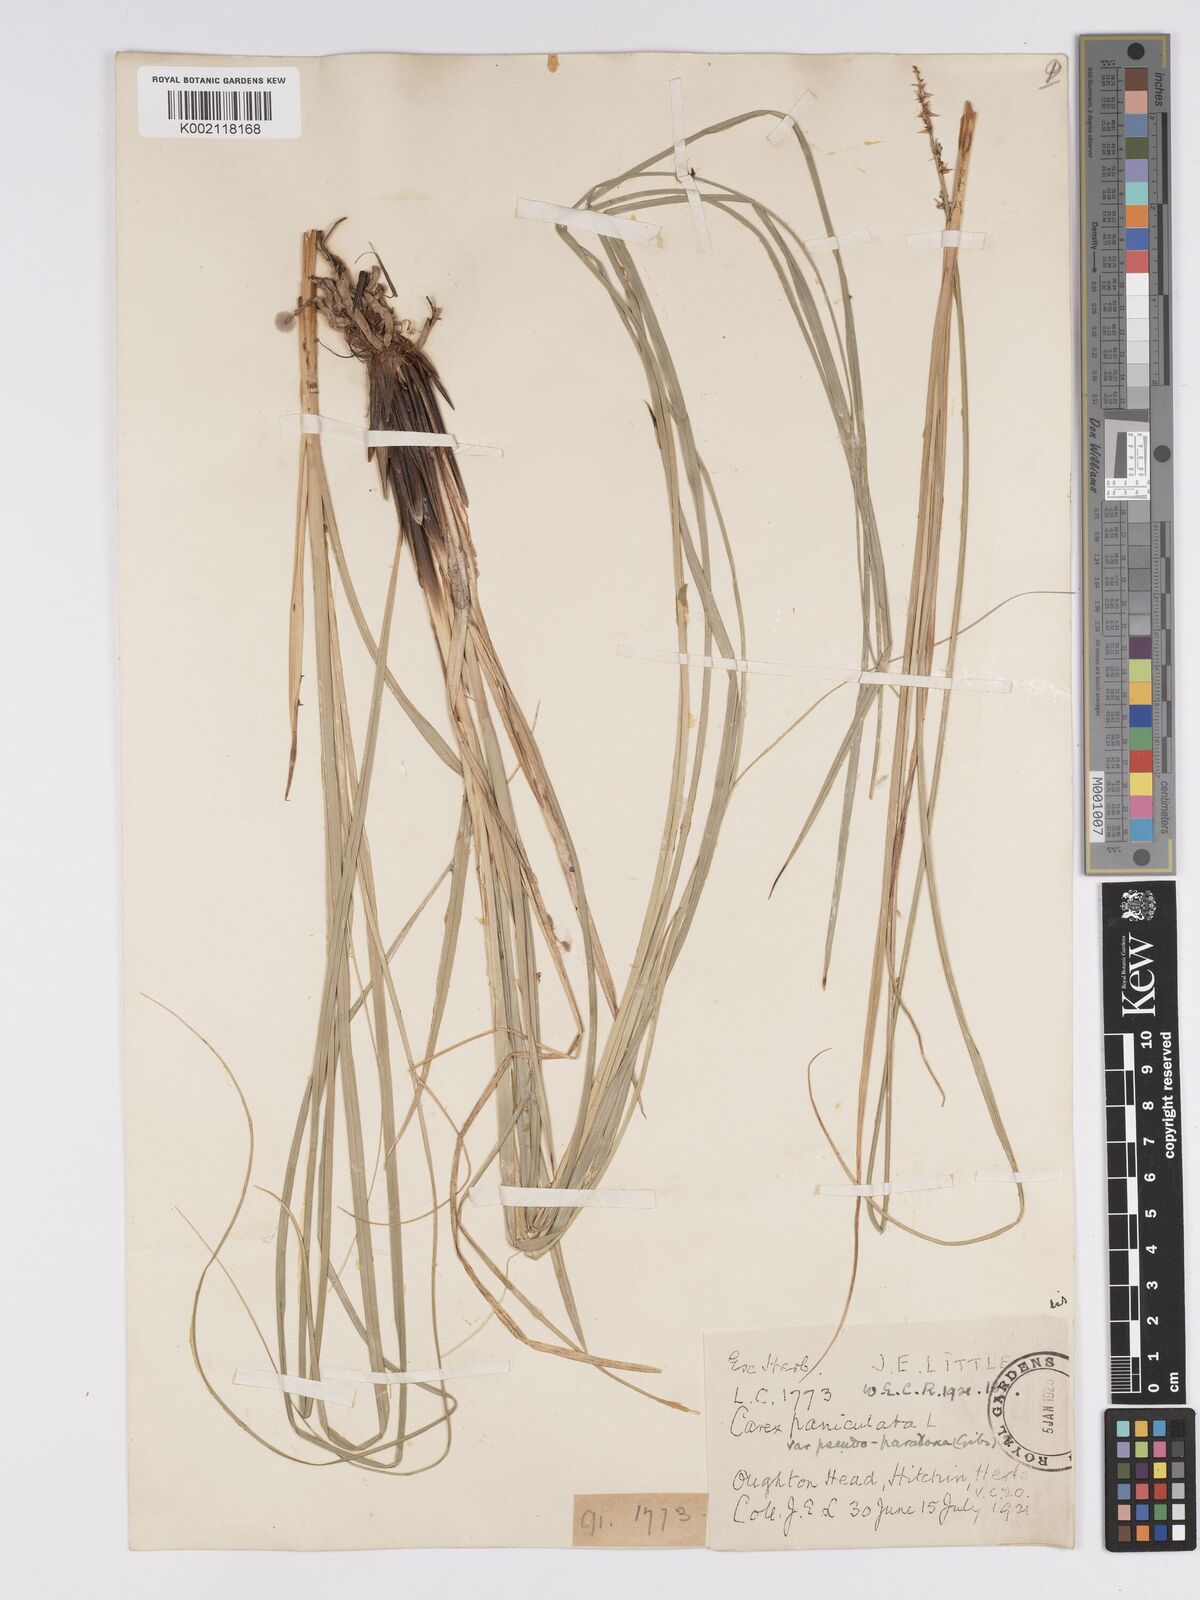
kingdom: Plantae
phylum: Tracheophyta
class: Liliopsida
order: Poales
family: Cyperaceae
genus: Carex
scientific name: Carex paniculata
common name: Greater tussock-sedge
